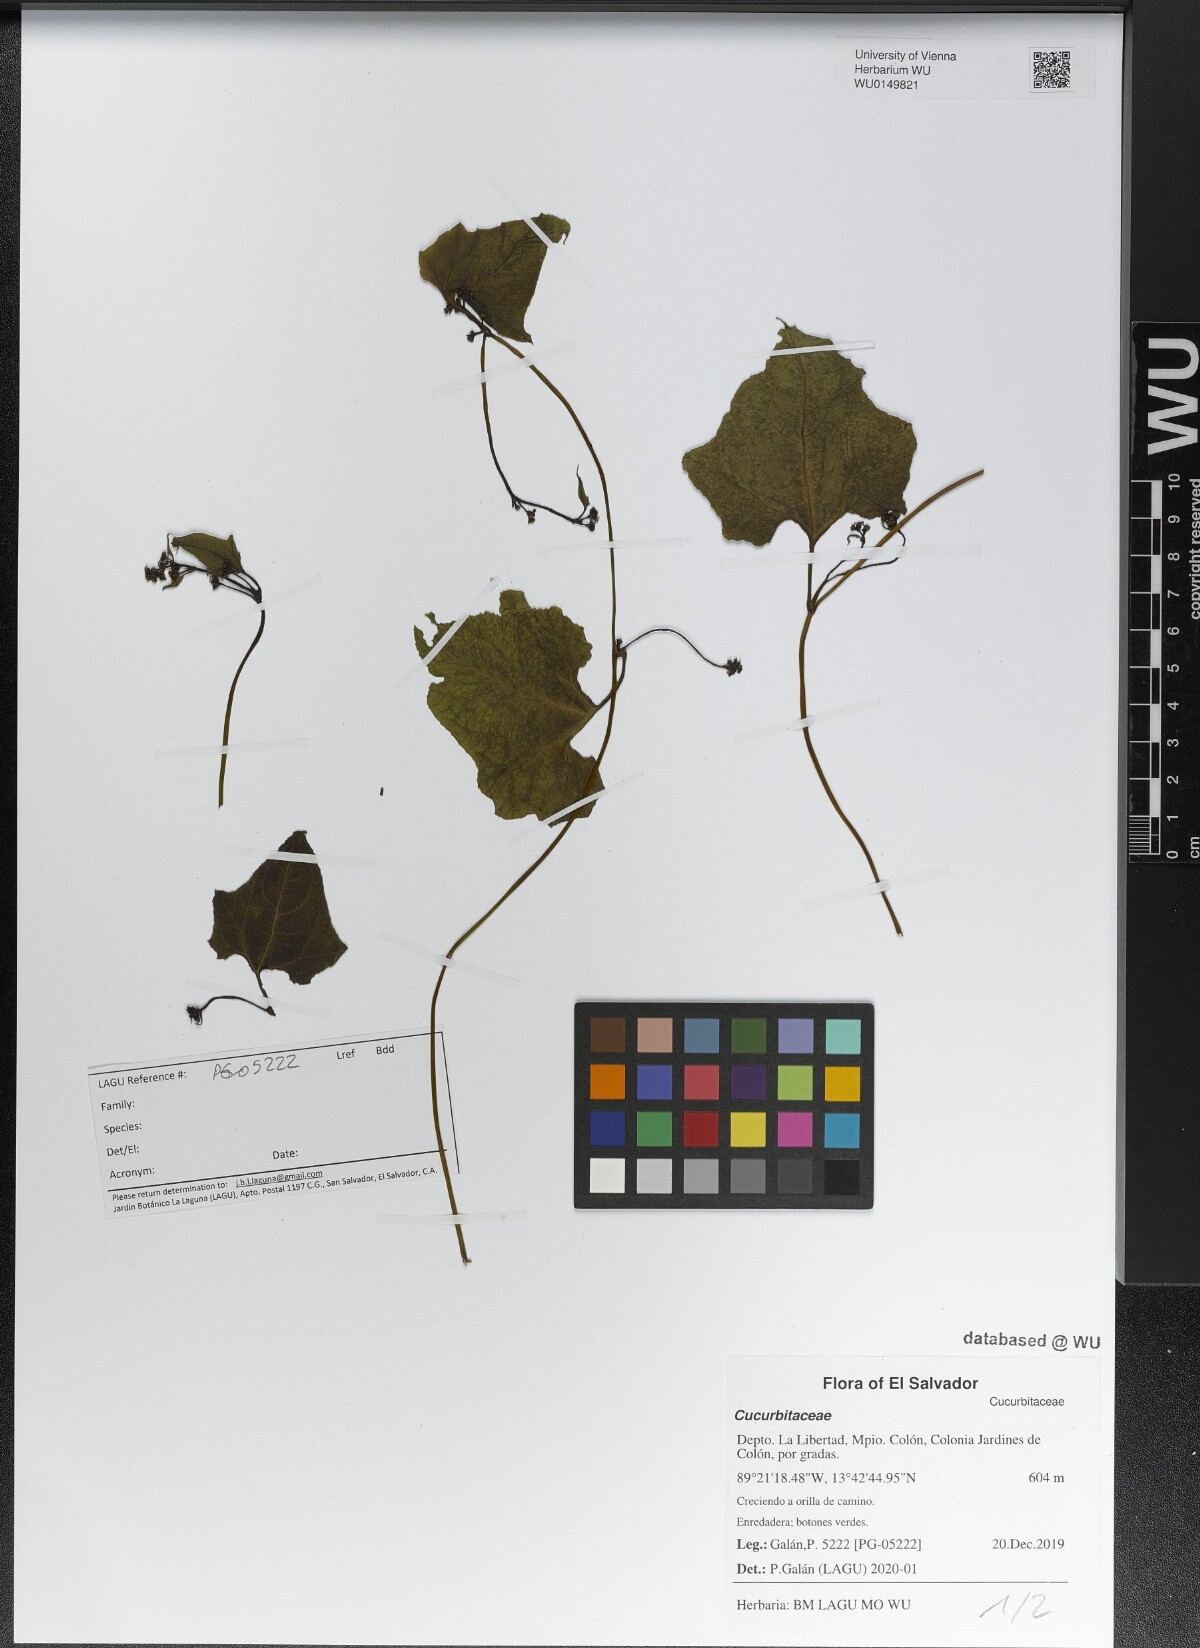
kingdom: Plantae
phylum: Tracheophyta
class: Magnoliopsida
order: Cucurbitales
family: Cucurbitaceae
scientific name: Cucurbitaceae
